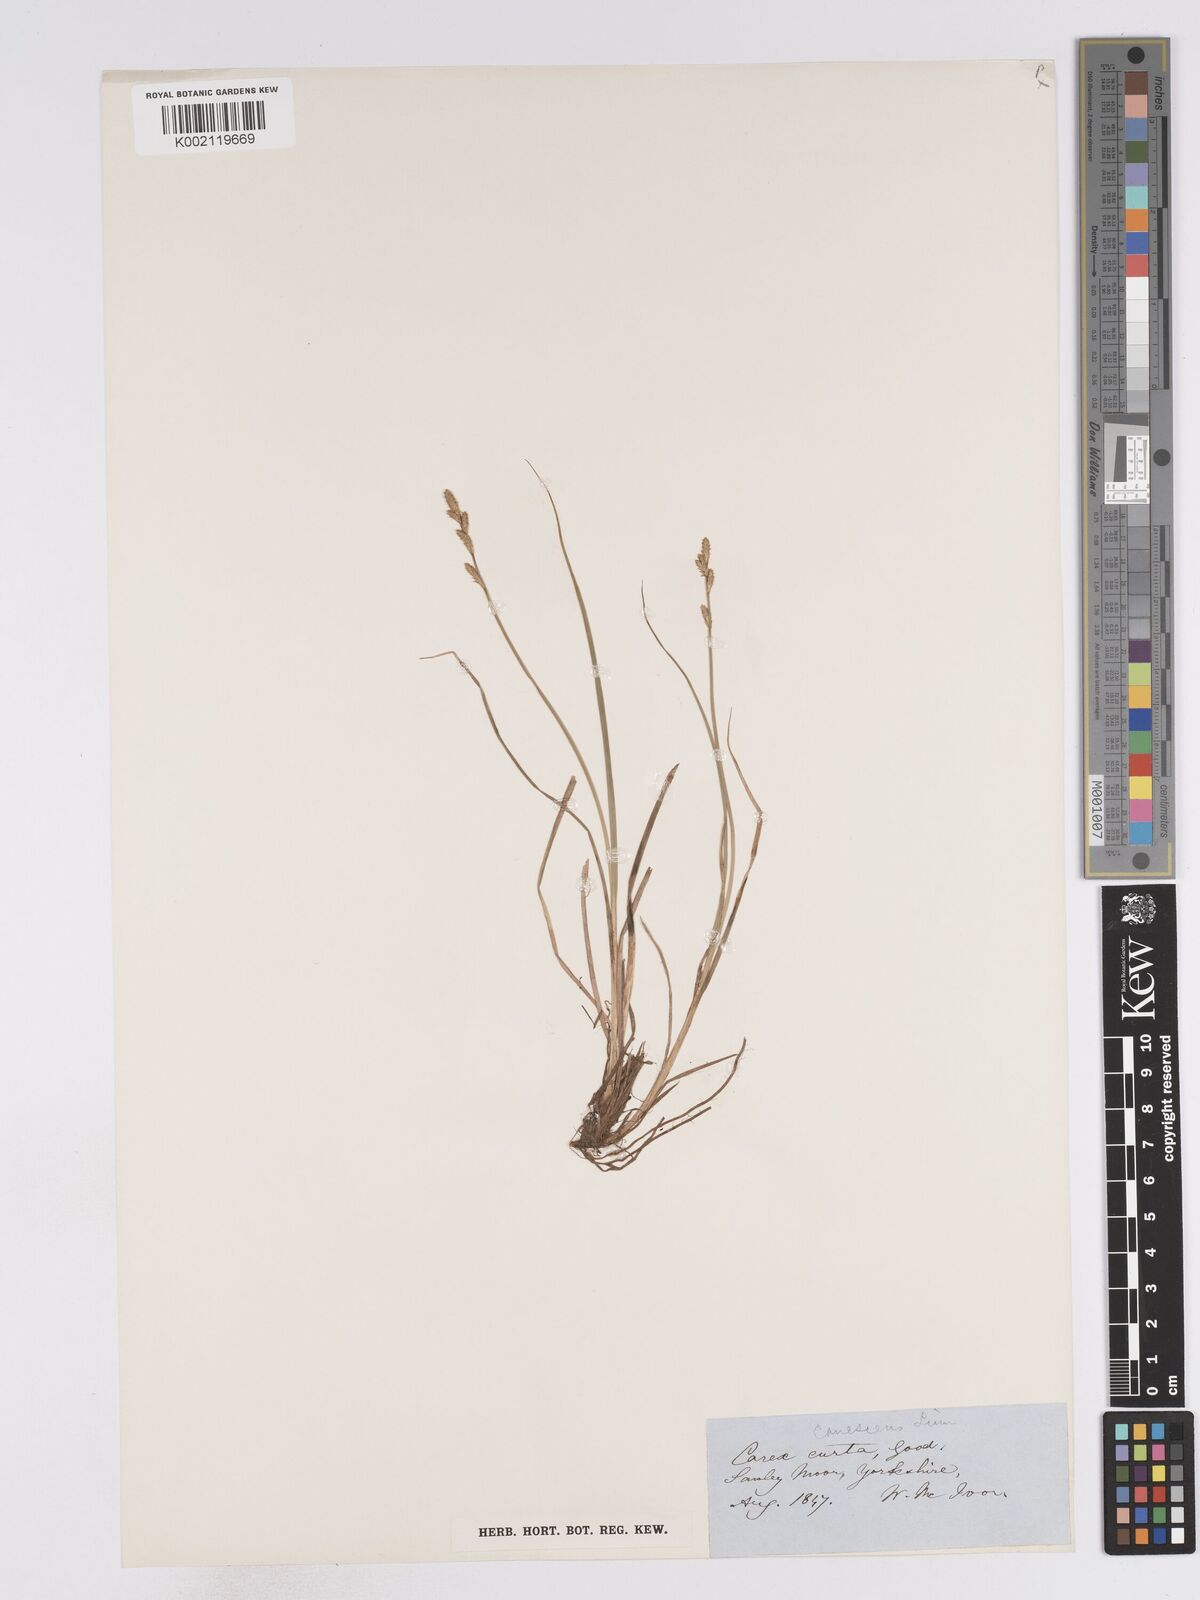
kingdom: Plantae
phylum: Tracheophyta
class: Liliopsida
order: Poales
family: Cyperaceae
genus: Carex
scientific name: Carex curta
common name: White sedge
